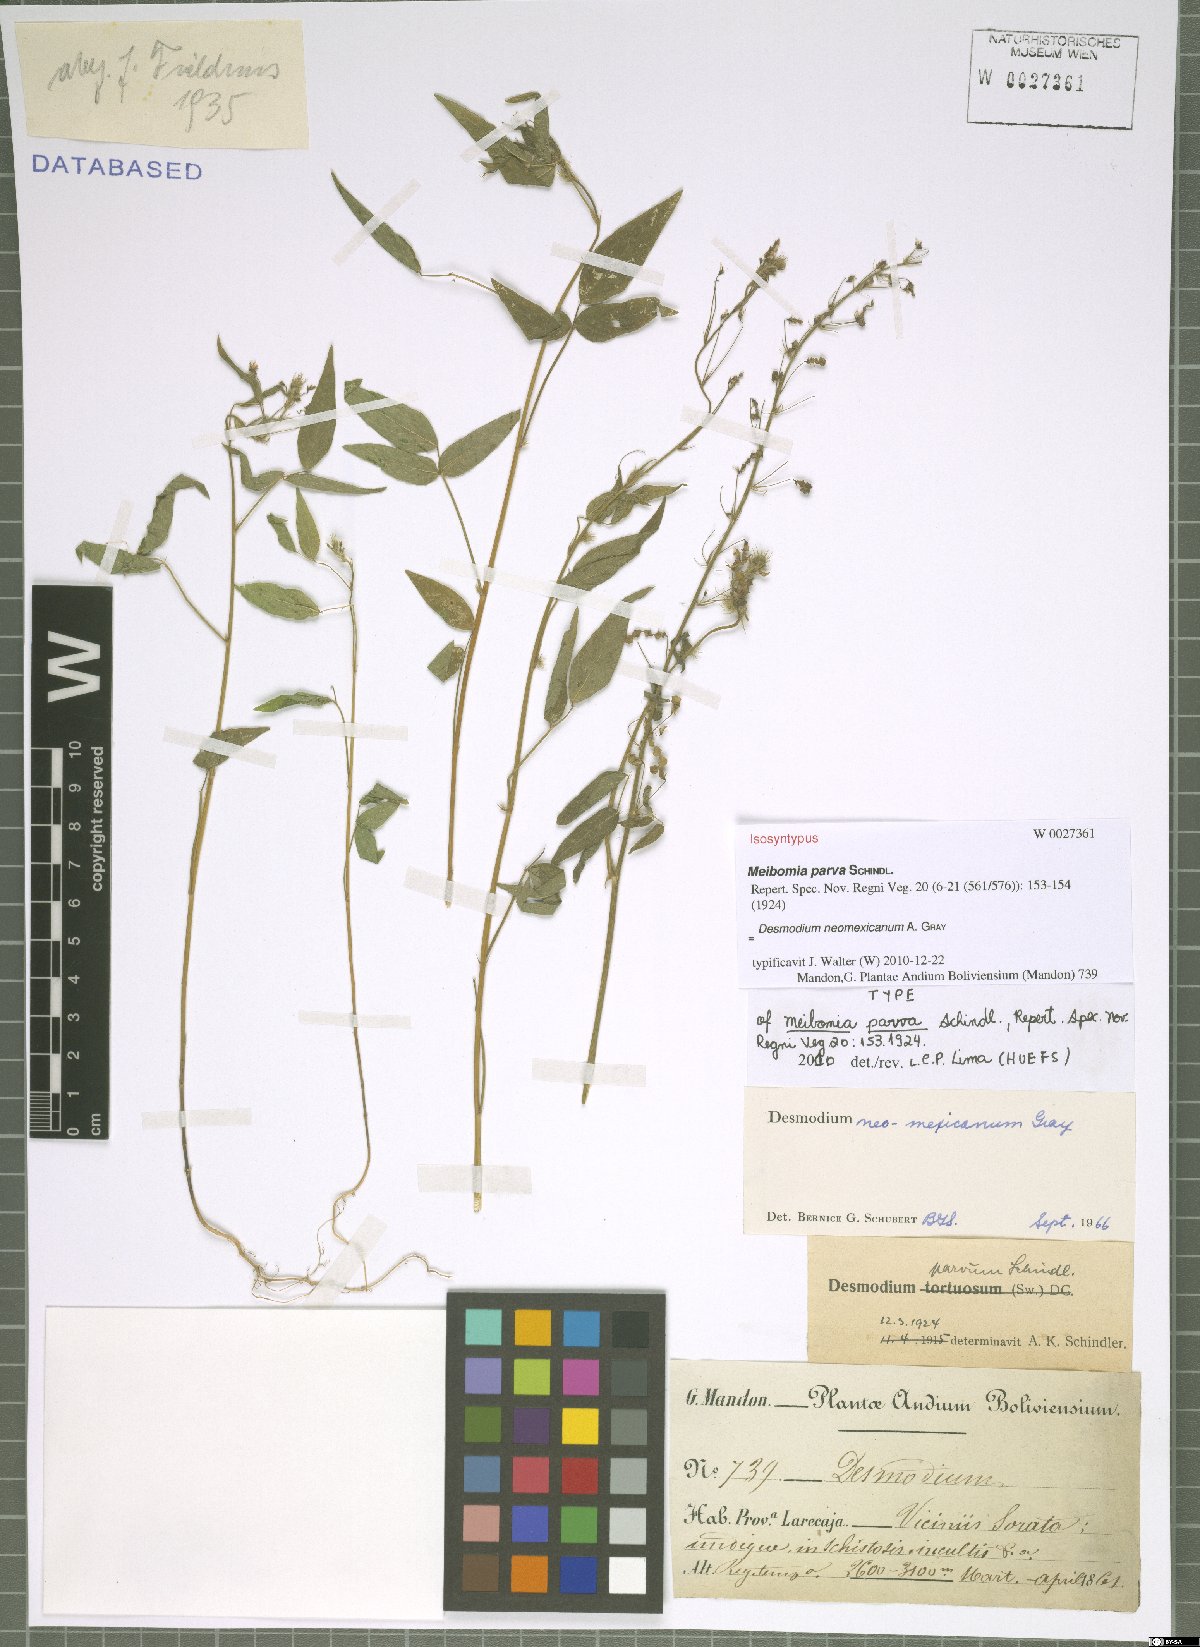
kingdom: Plantae
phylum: Tracheophyta
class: Magnoliopsida
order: Fabales
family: Fabaceae
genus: Desmodium
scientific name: Desmodium procumbens
